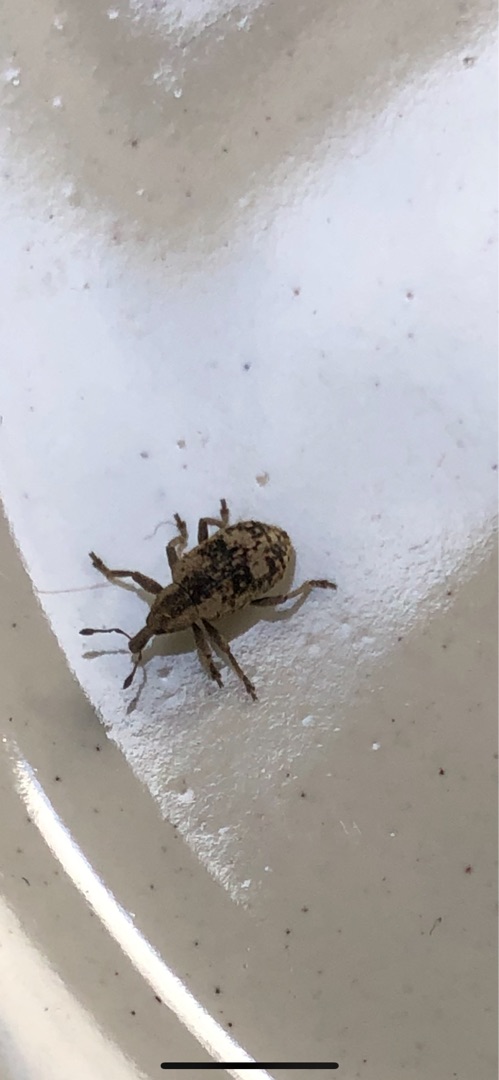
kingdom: Animalia
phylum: Arthropoda
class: Insecta
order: Coleoptera
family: Curculionidae
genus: Hypera
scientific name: Hypera rumicis
